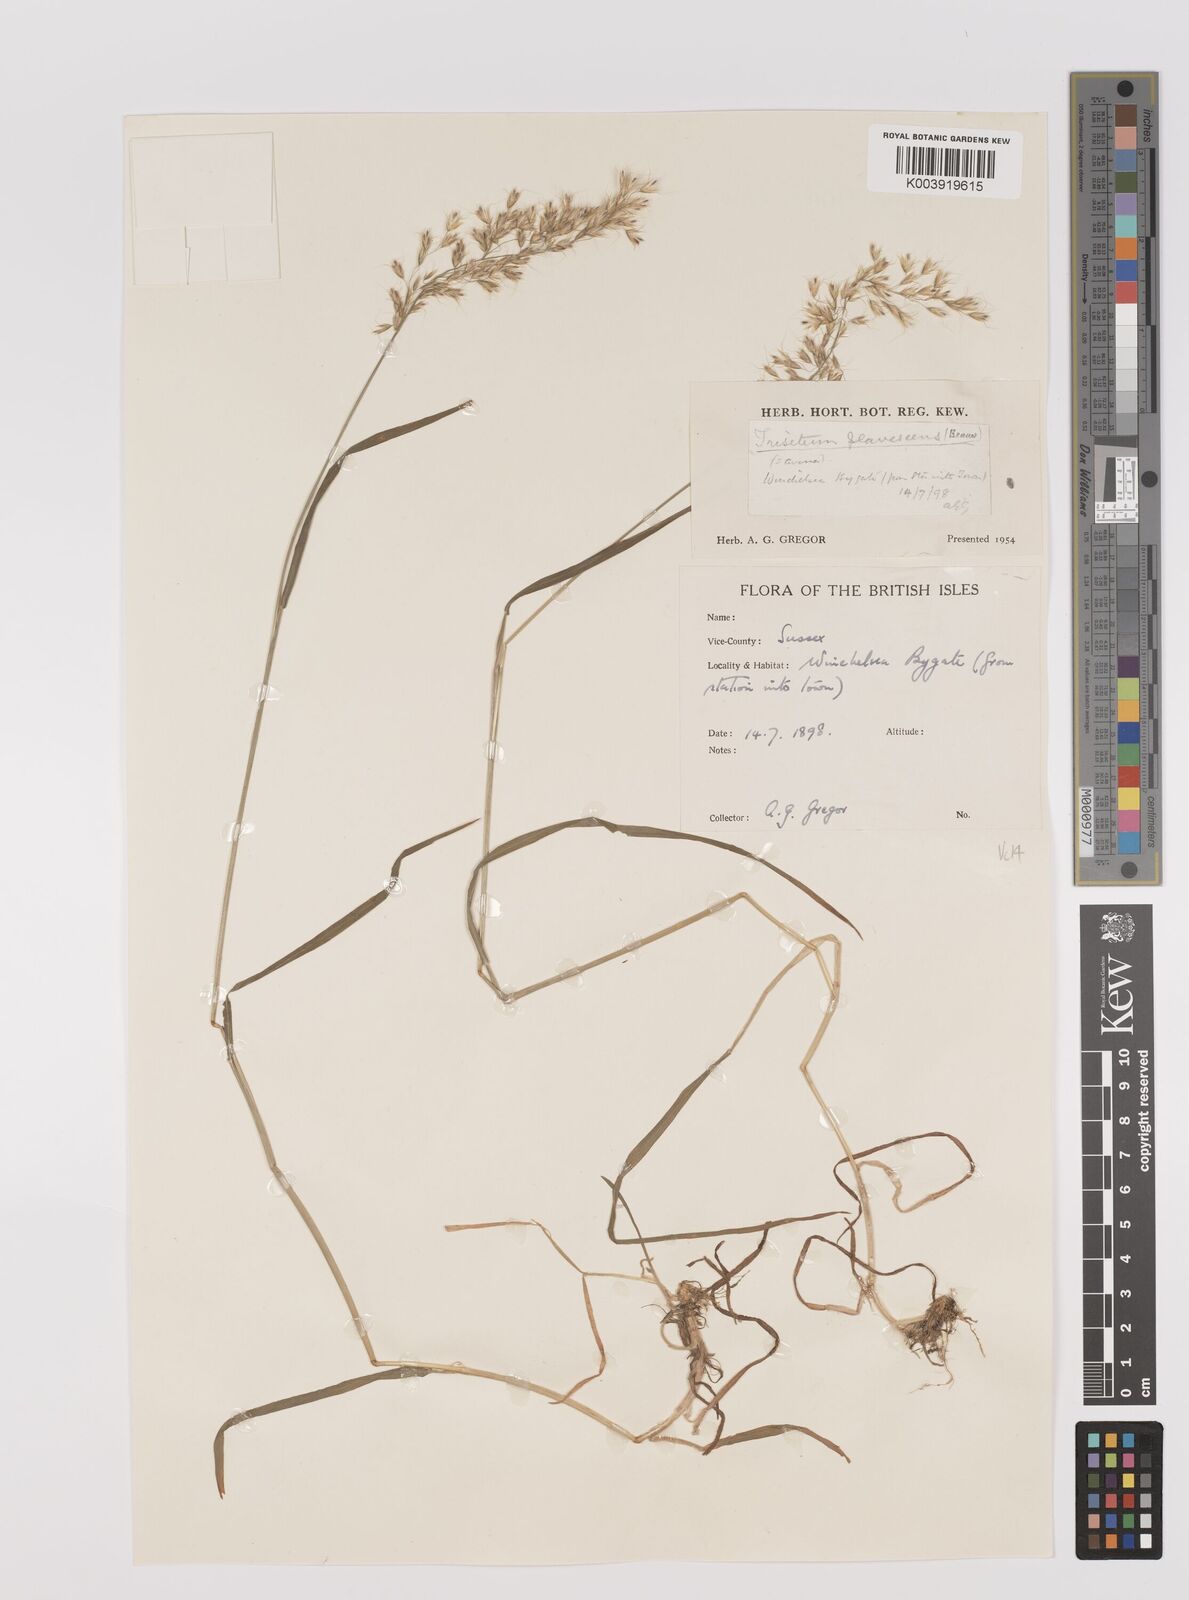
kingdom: Plantae
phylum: Tracheophyta
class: Liliopsida
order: Poales
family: Poaceae
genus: Trisetum
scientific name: Trisetum flavescens
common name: Yellow oat-grass
